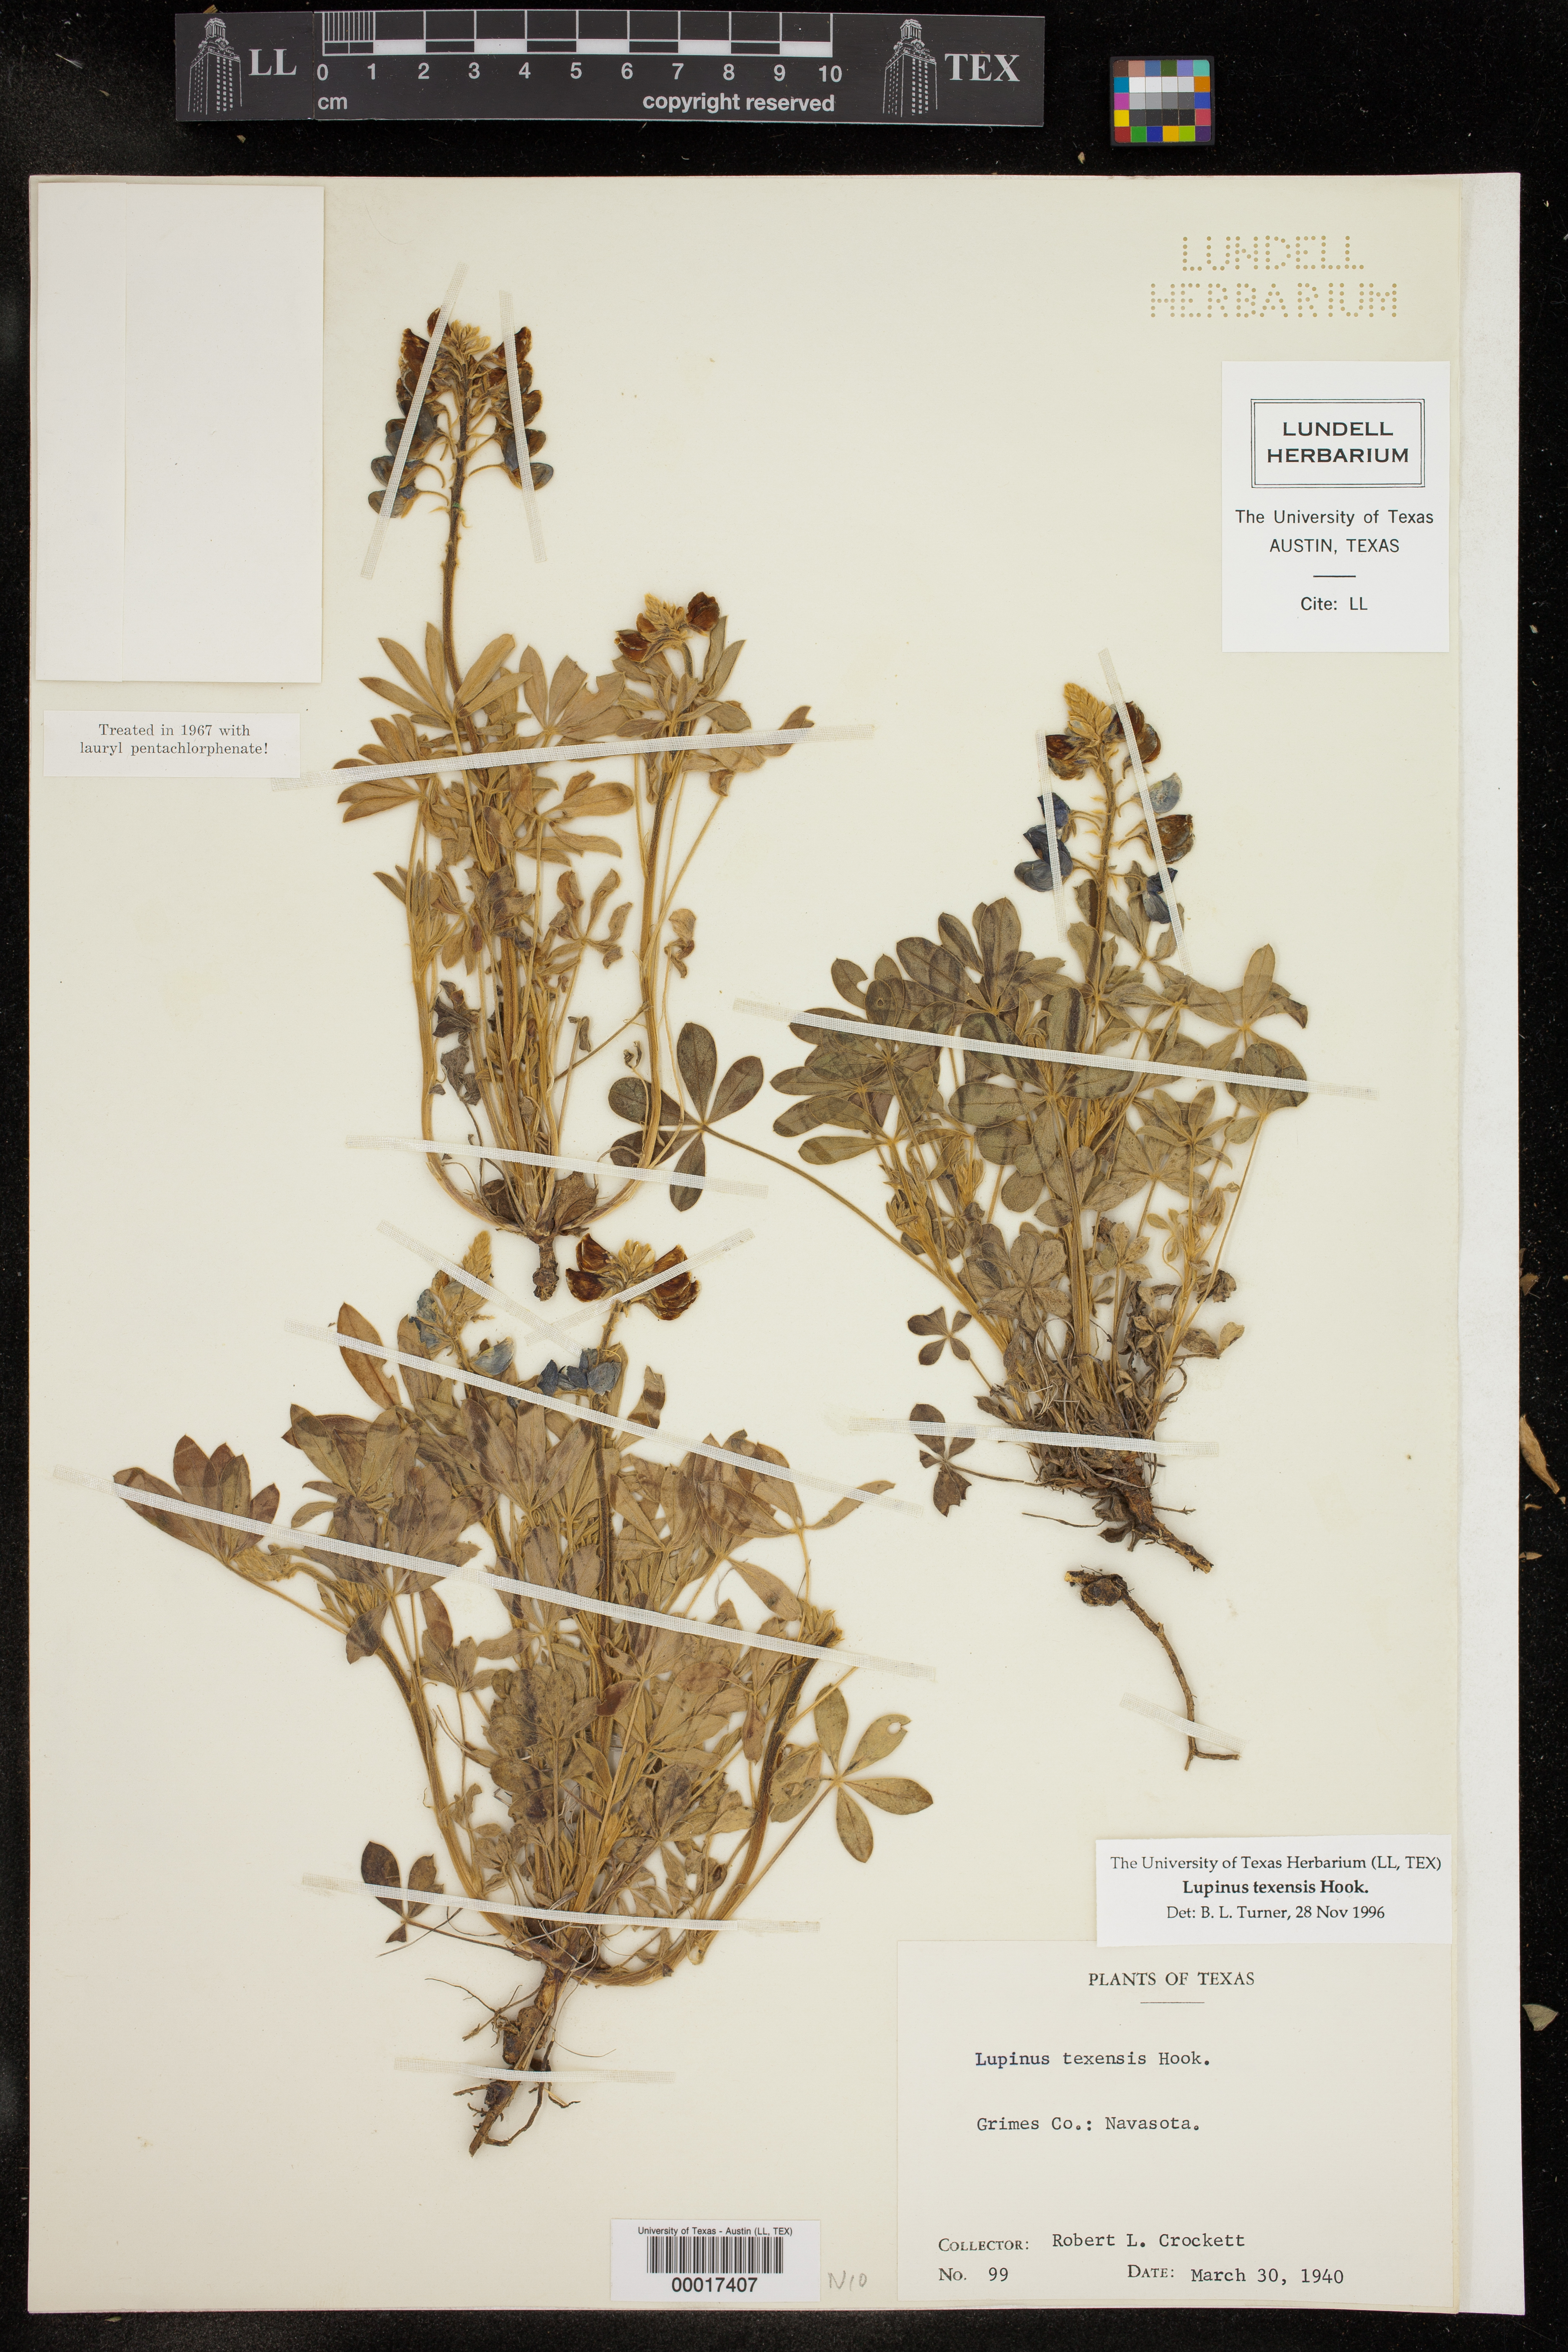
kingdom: Plantae
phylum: Tracheophyta
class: Magnoliopsida
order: Fabales
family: Fabaceae
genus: Lupinus
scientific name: Lupinus texensis
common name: Texas bluebonnet
